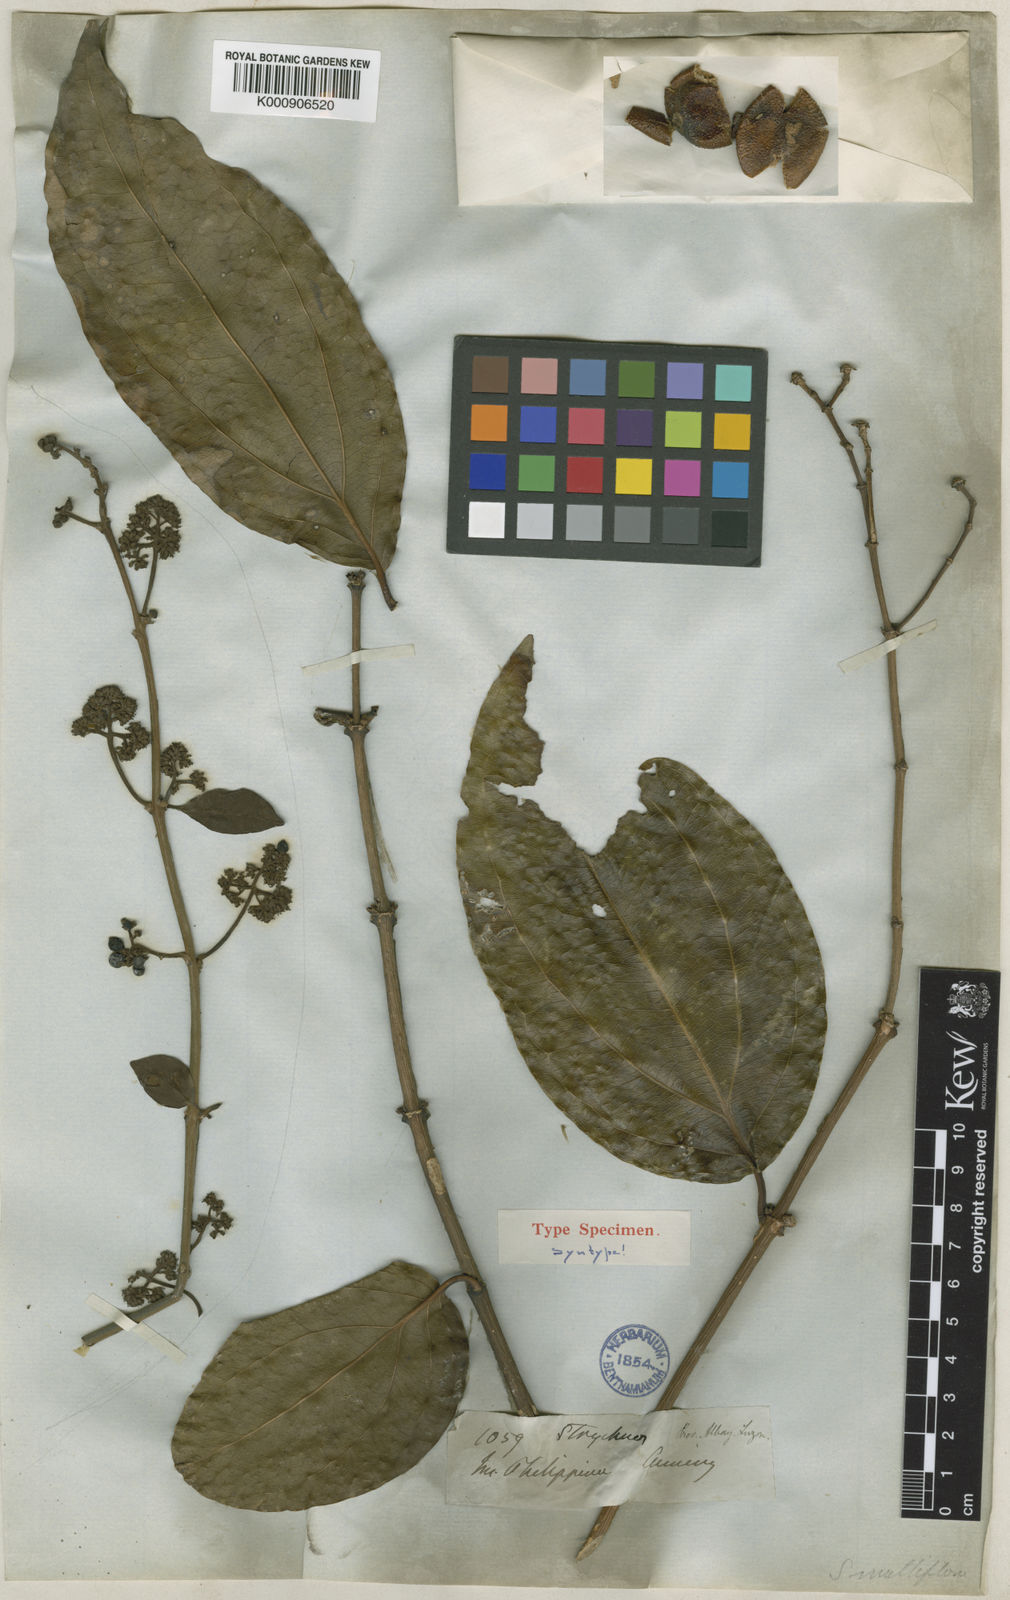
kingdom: Plantae
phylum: Tracheophyta
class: Magnoliopsida
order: Gentianales
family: Loganiaceae
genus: Strychnos
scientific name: Strychnos minor
